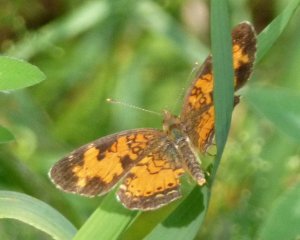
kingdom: Animalia
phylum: Arthropoda
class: Insecta
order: Lepidoptera
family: Nymphalidae
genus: Phyciodes
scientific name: Phyciodes tharos
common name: Northern Crescent
